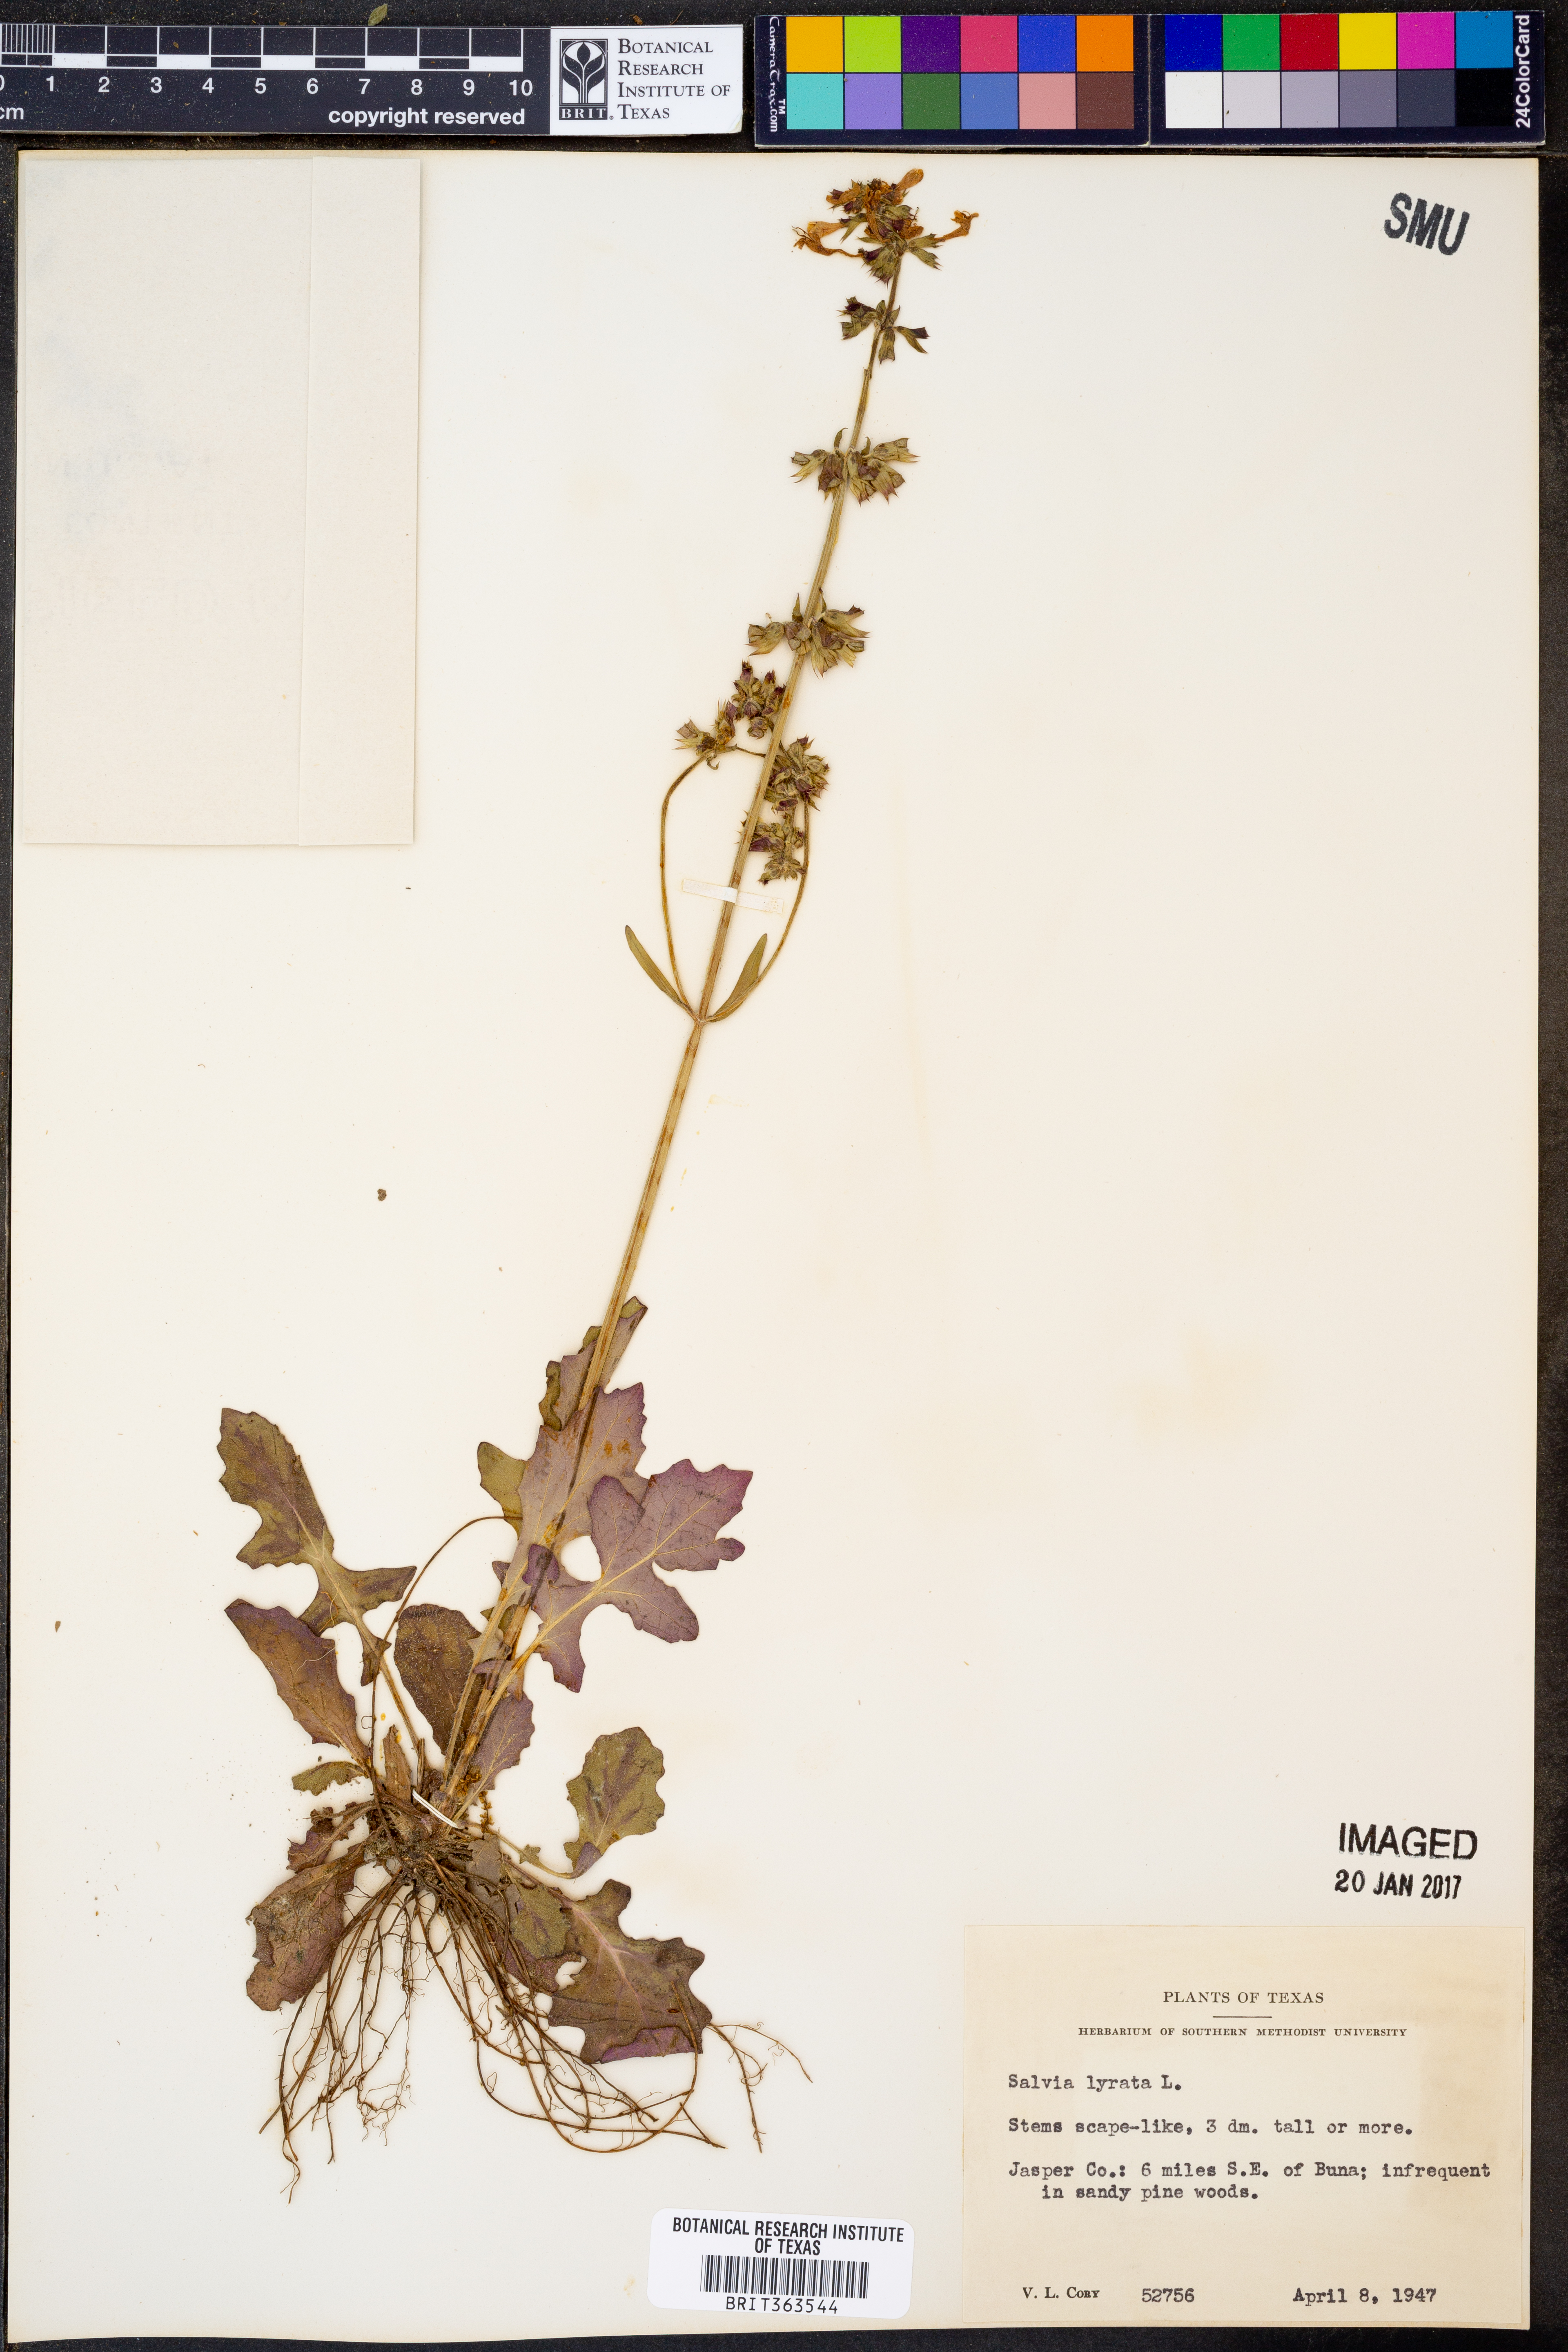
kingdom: Plantae
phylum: Tracheophyta
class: Magnoliopsida
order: Lamiales
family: Lamiaceae
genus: Salvia
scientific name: Salvia lyrata
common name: Cancerweed
